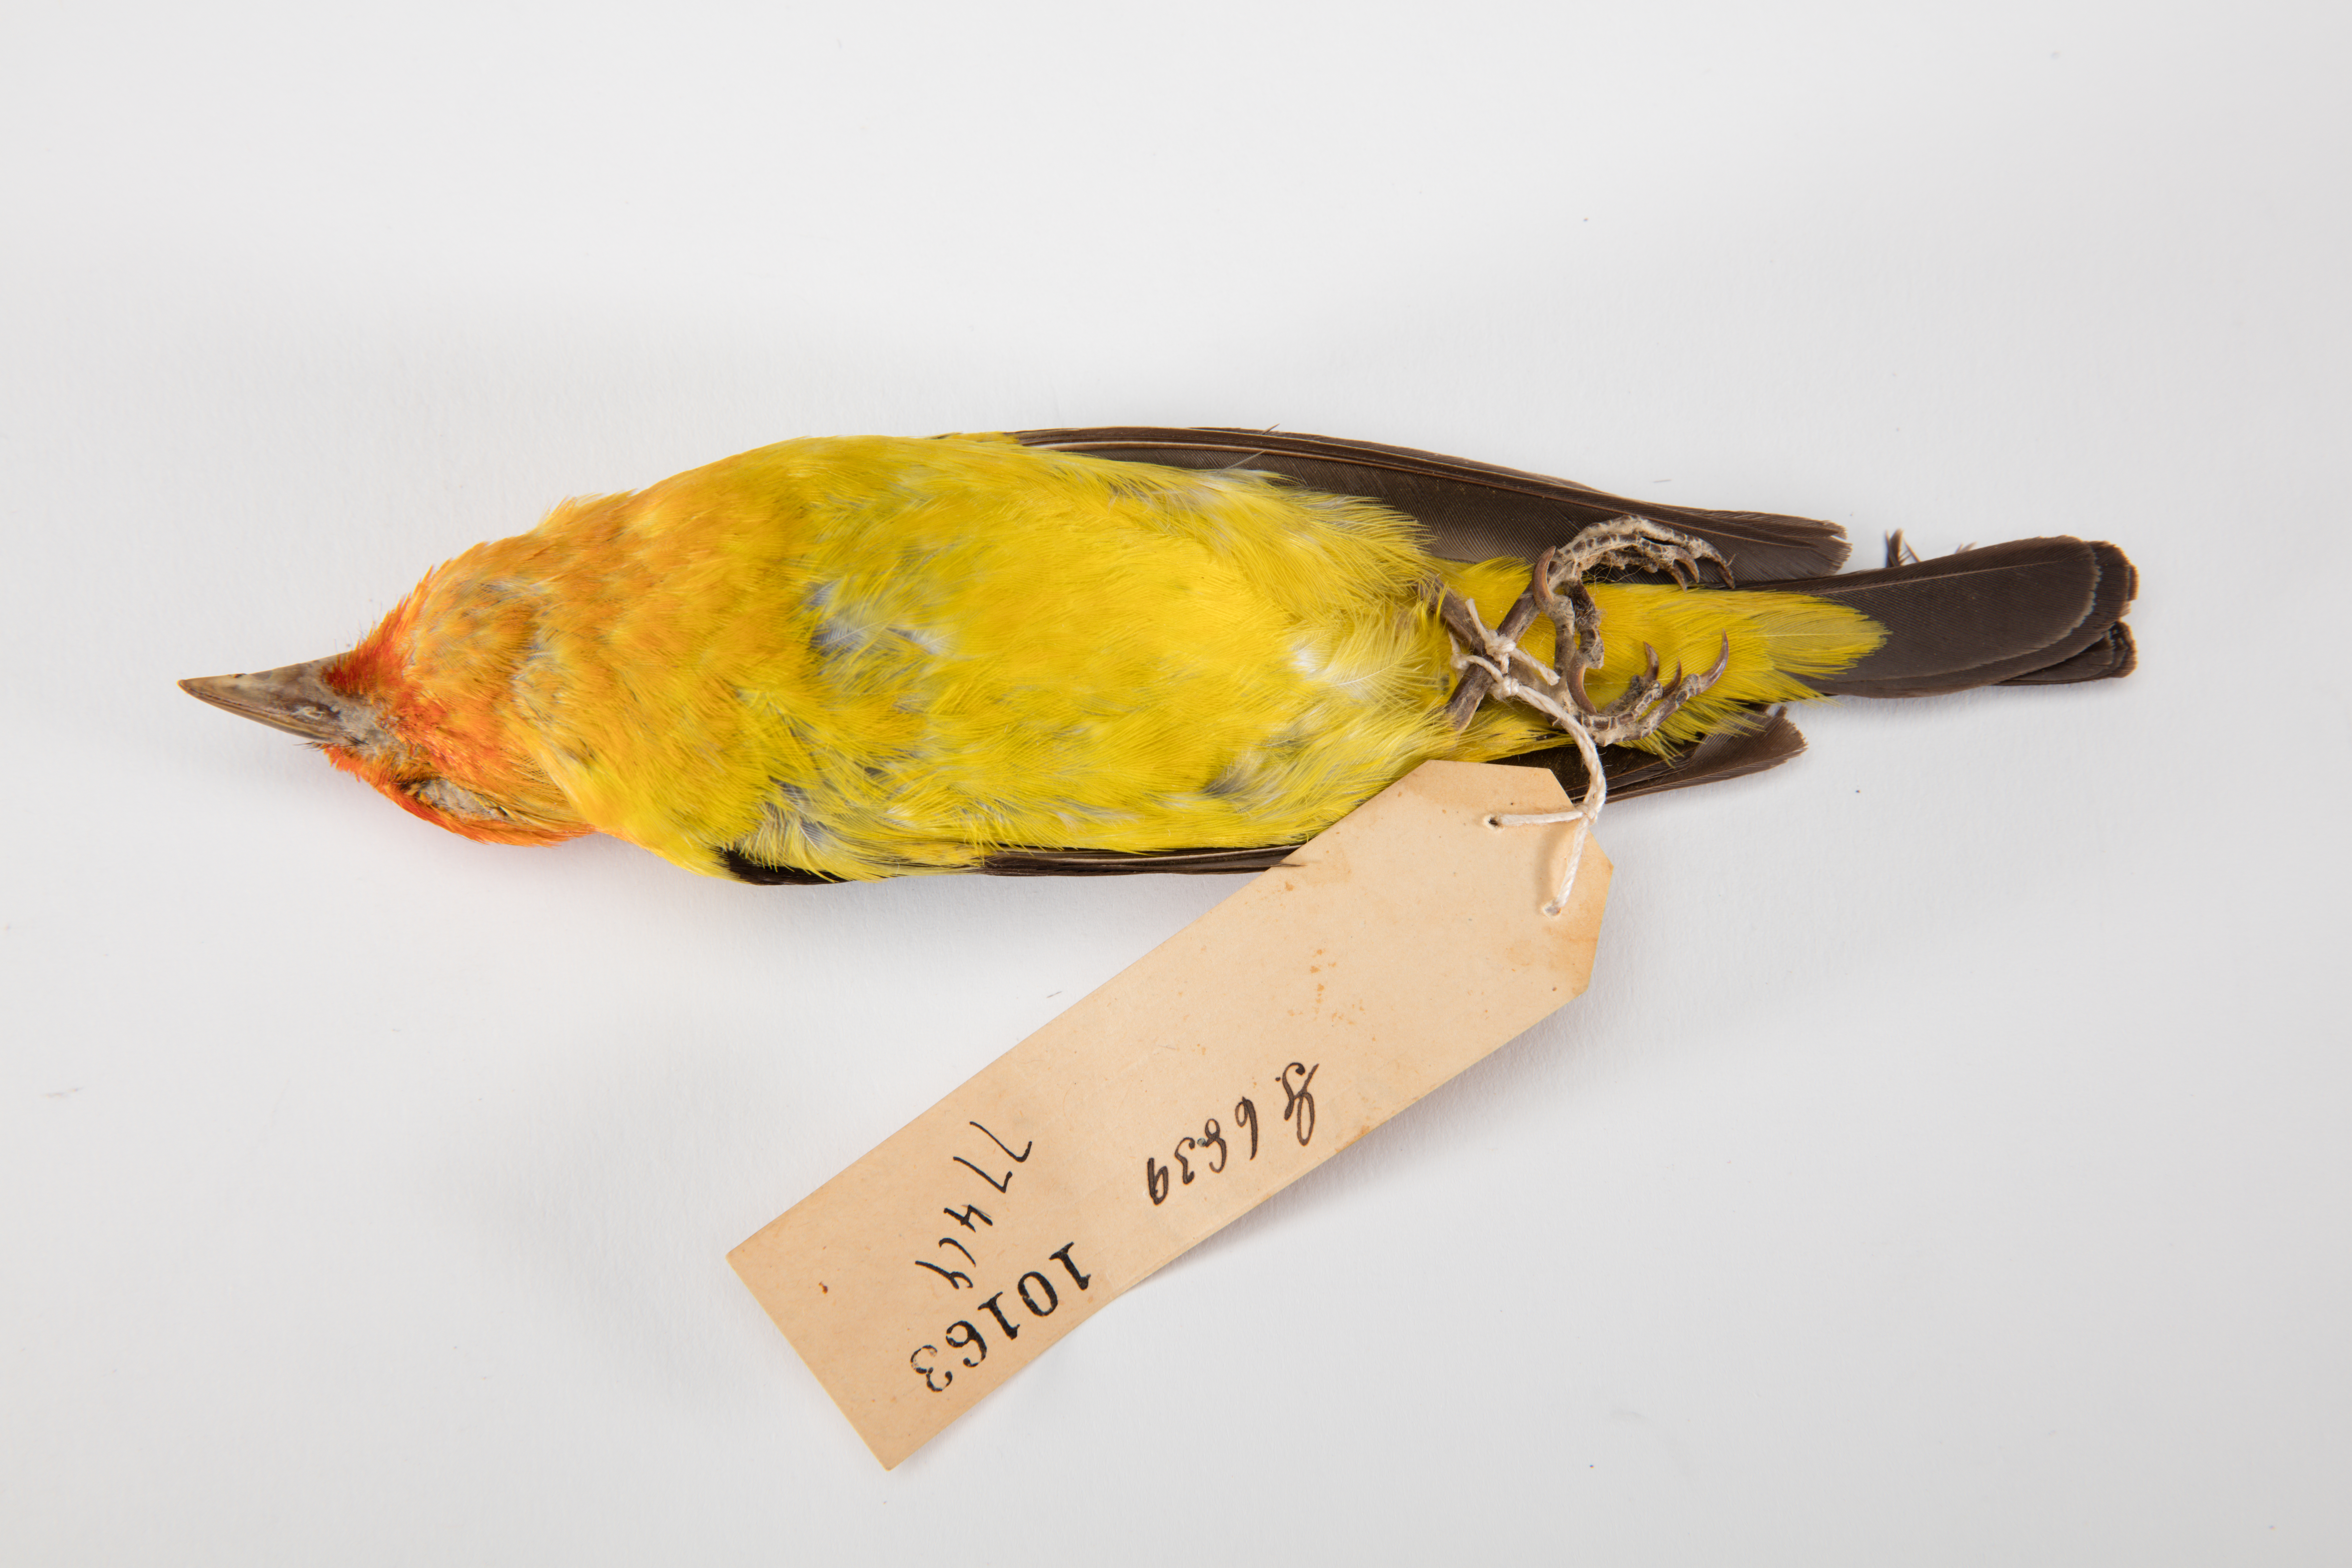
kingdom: Animalia
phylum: Chordata
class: Aves
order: Passeriformes
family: Cardinalidae
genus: Piranga
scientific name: Piranga ludoviciana
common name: Western tanager
